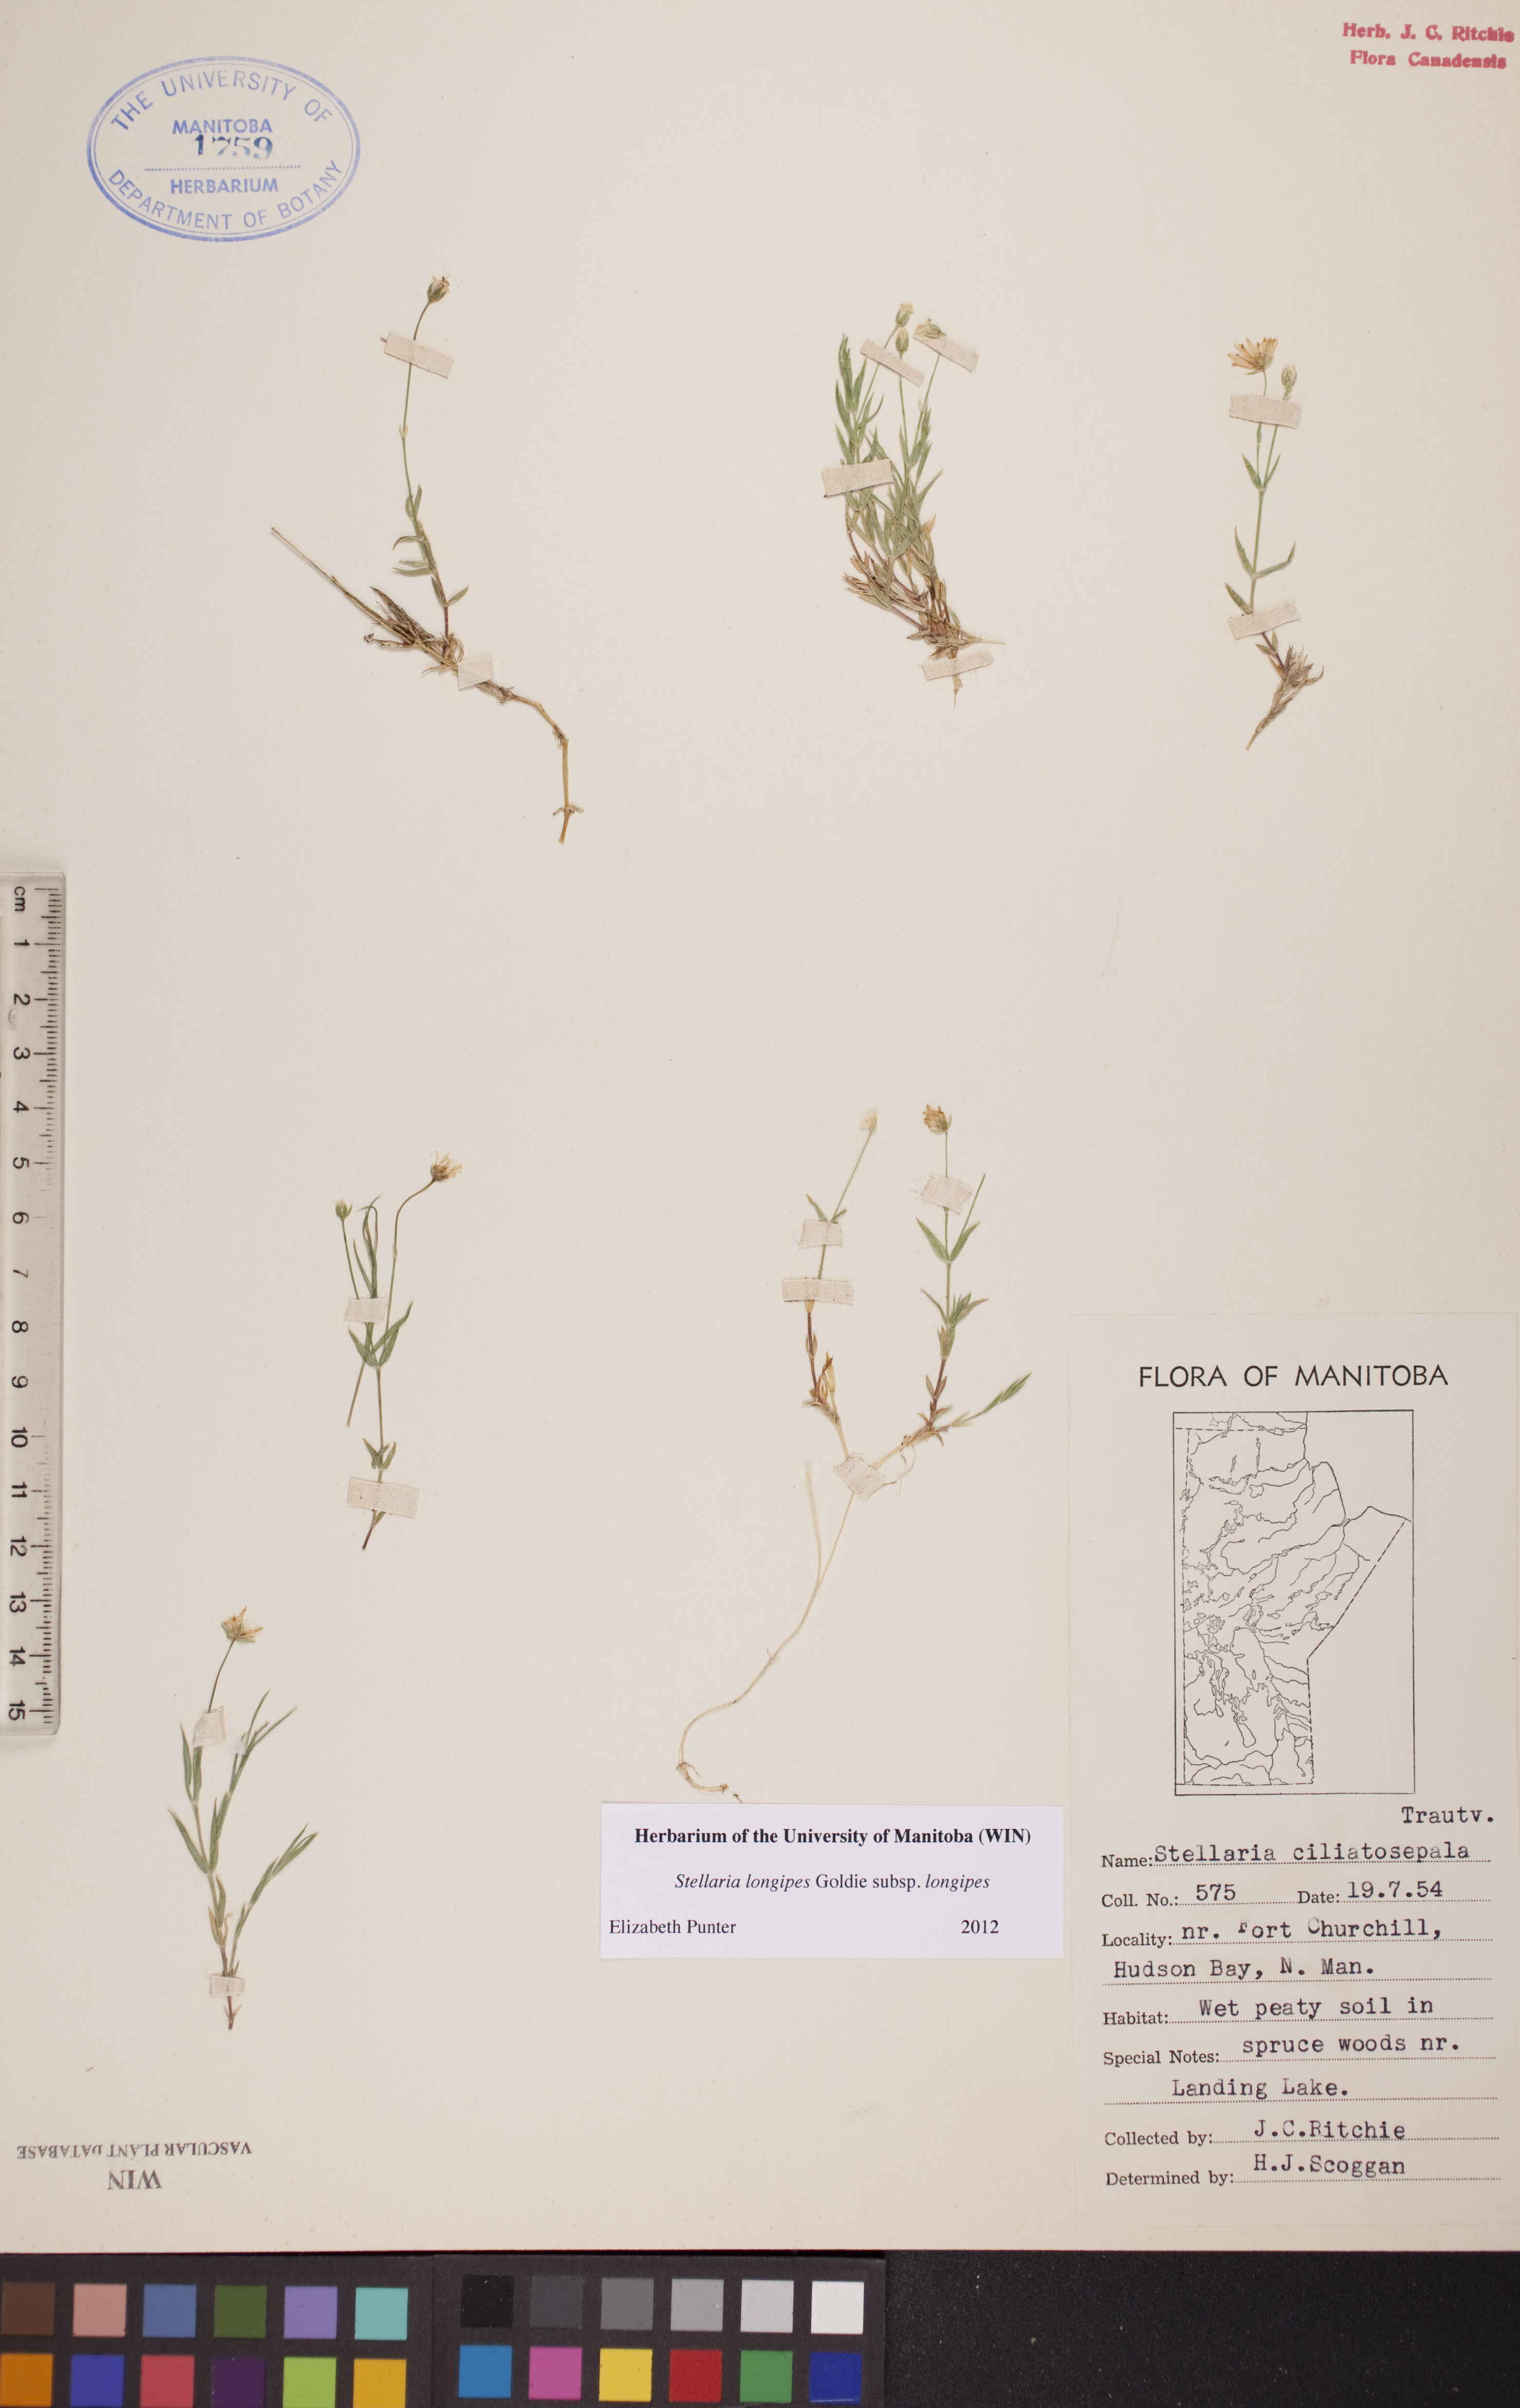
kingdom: Plantae
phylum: Tracheophyta
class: Magnoliopsida
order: Caryophyllales
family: Caryophyllaceae
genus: Stellaria
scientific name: Stellaria longipes
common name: Goldie's starwort
